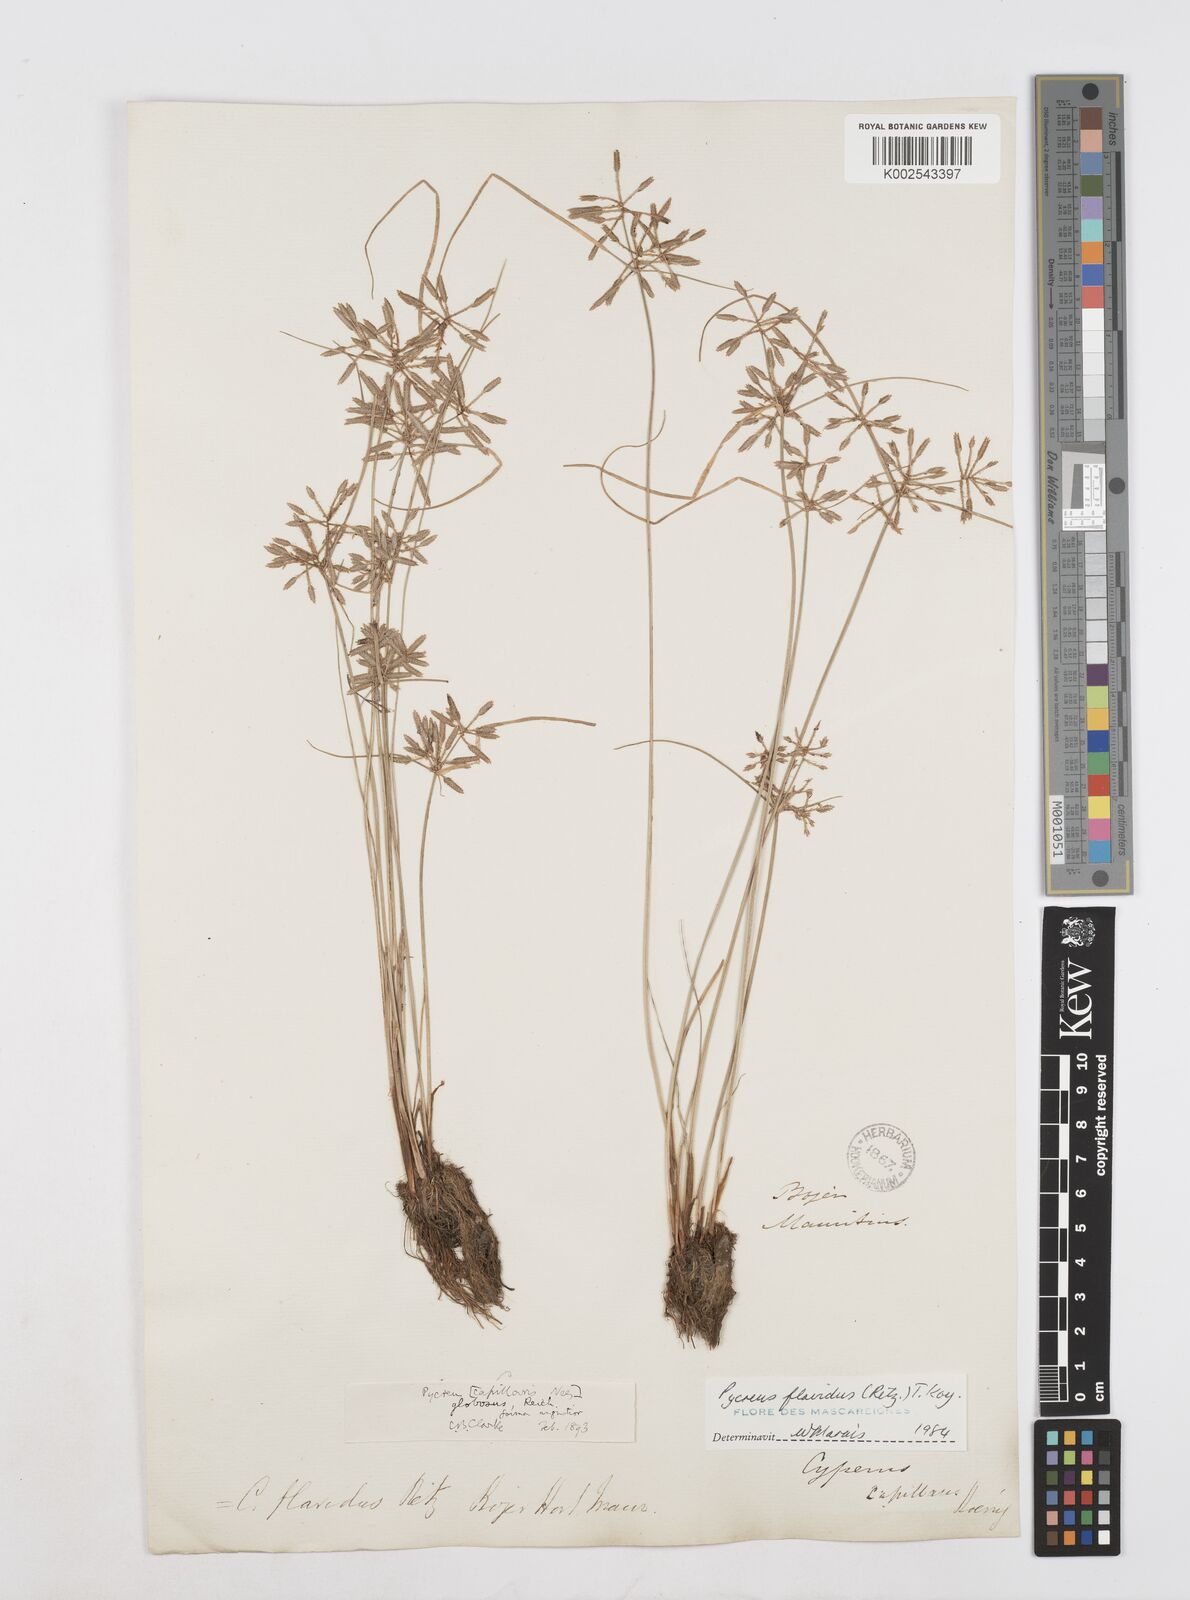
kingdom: Plantae
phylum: Tracheophyta
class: Liliopsida
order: Poales
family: Cyperaceae
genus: Cyperus
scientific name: Cyperus flavidus
